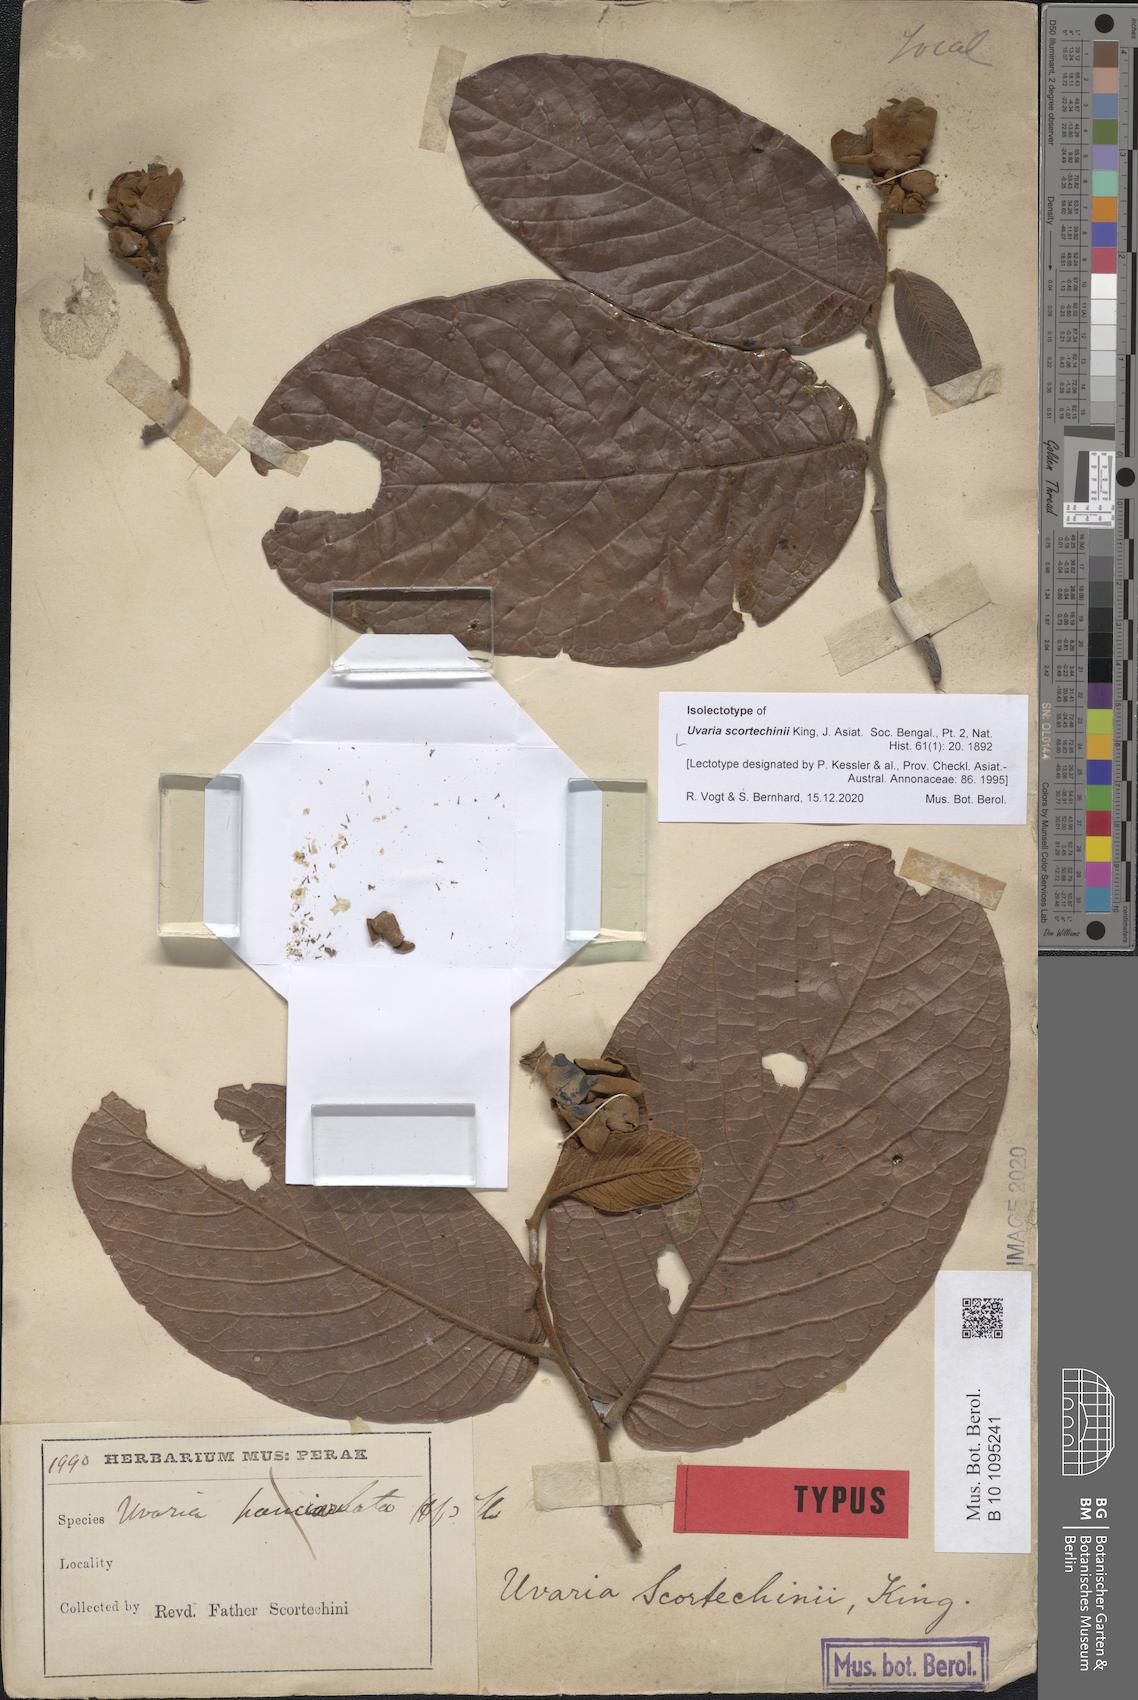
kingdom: Plantae
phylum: Tracheophyta
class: Magnoliopsida
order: Magnoliales
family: Annonaceae
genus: Uvaria
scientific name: Uvaria scortechinii
